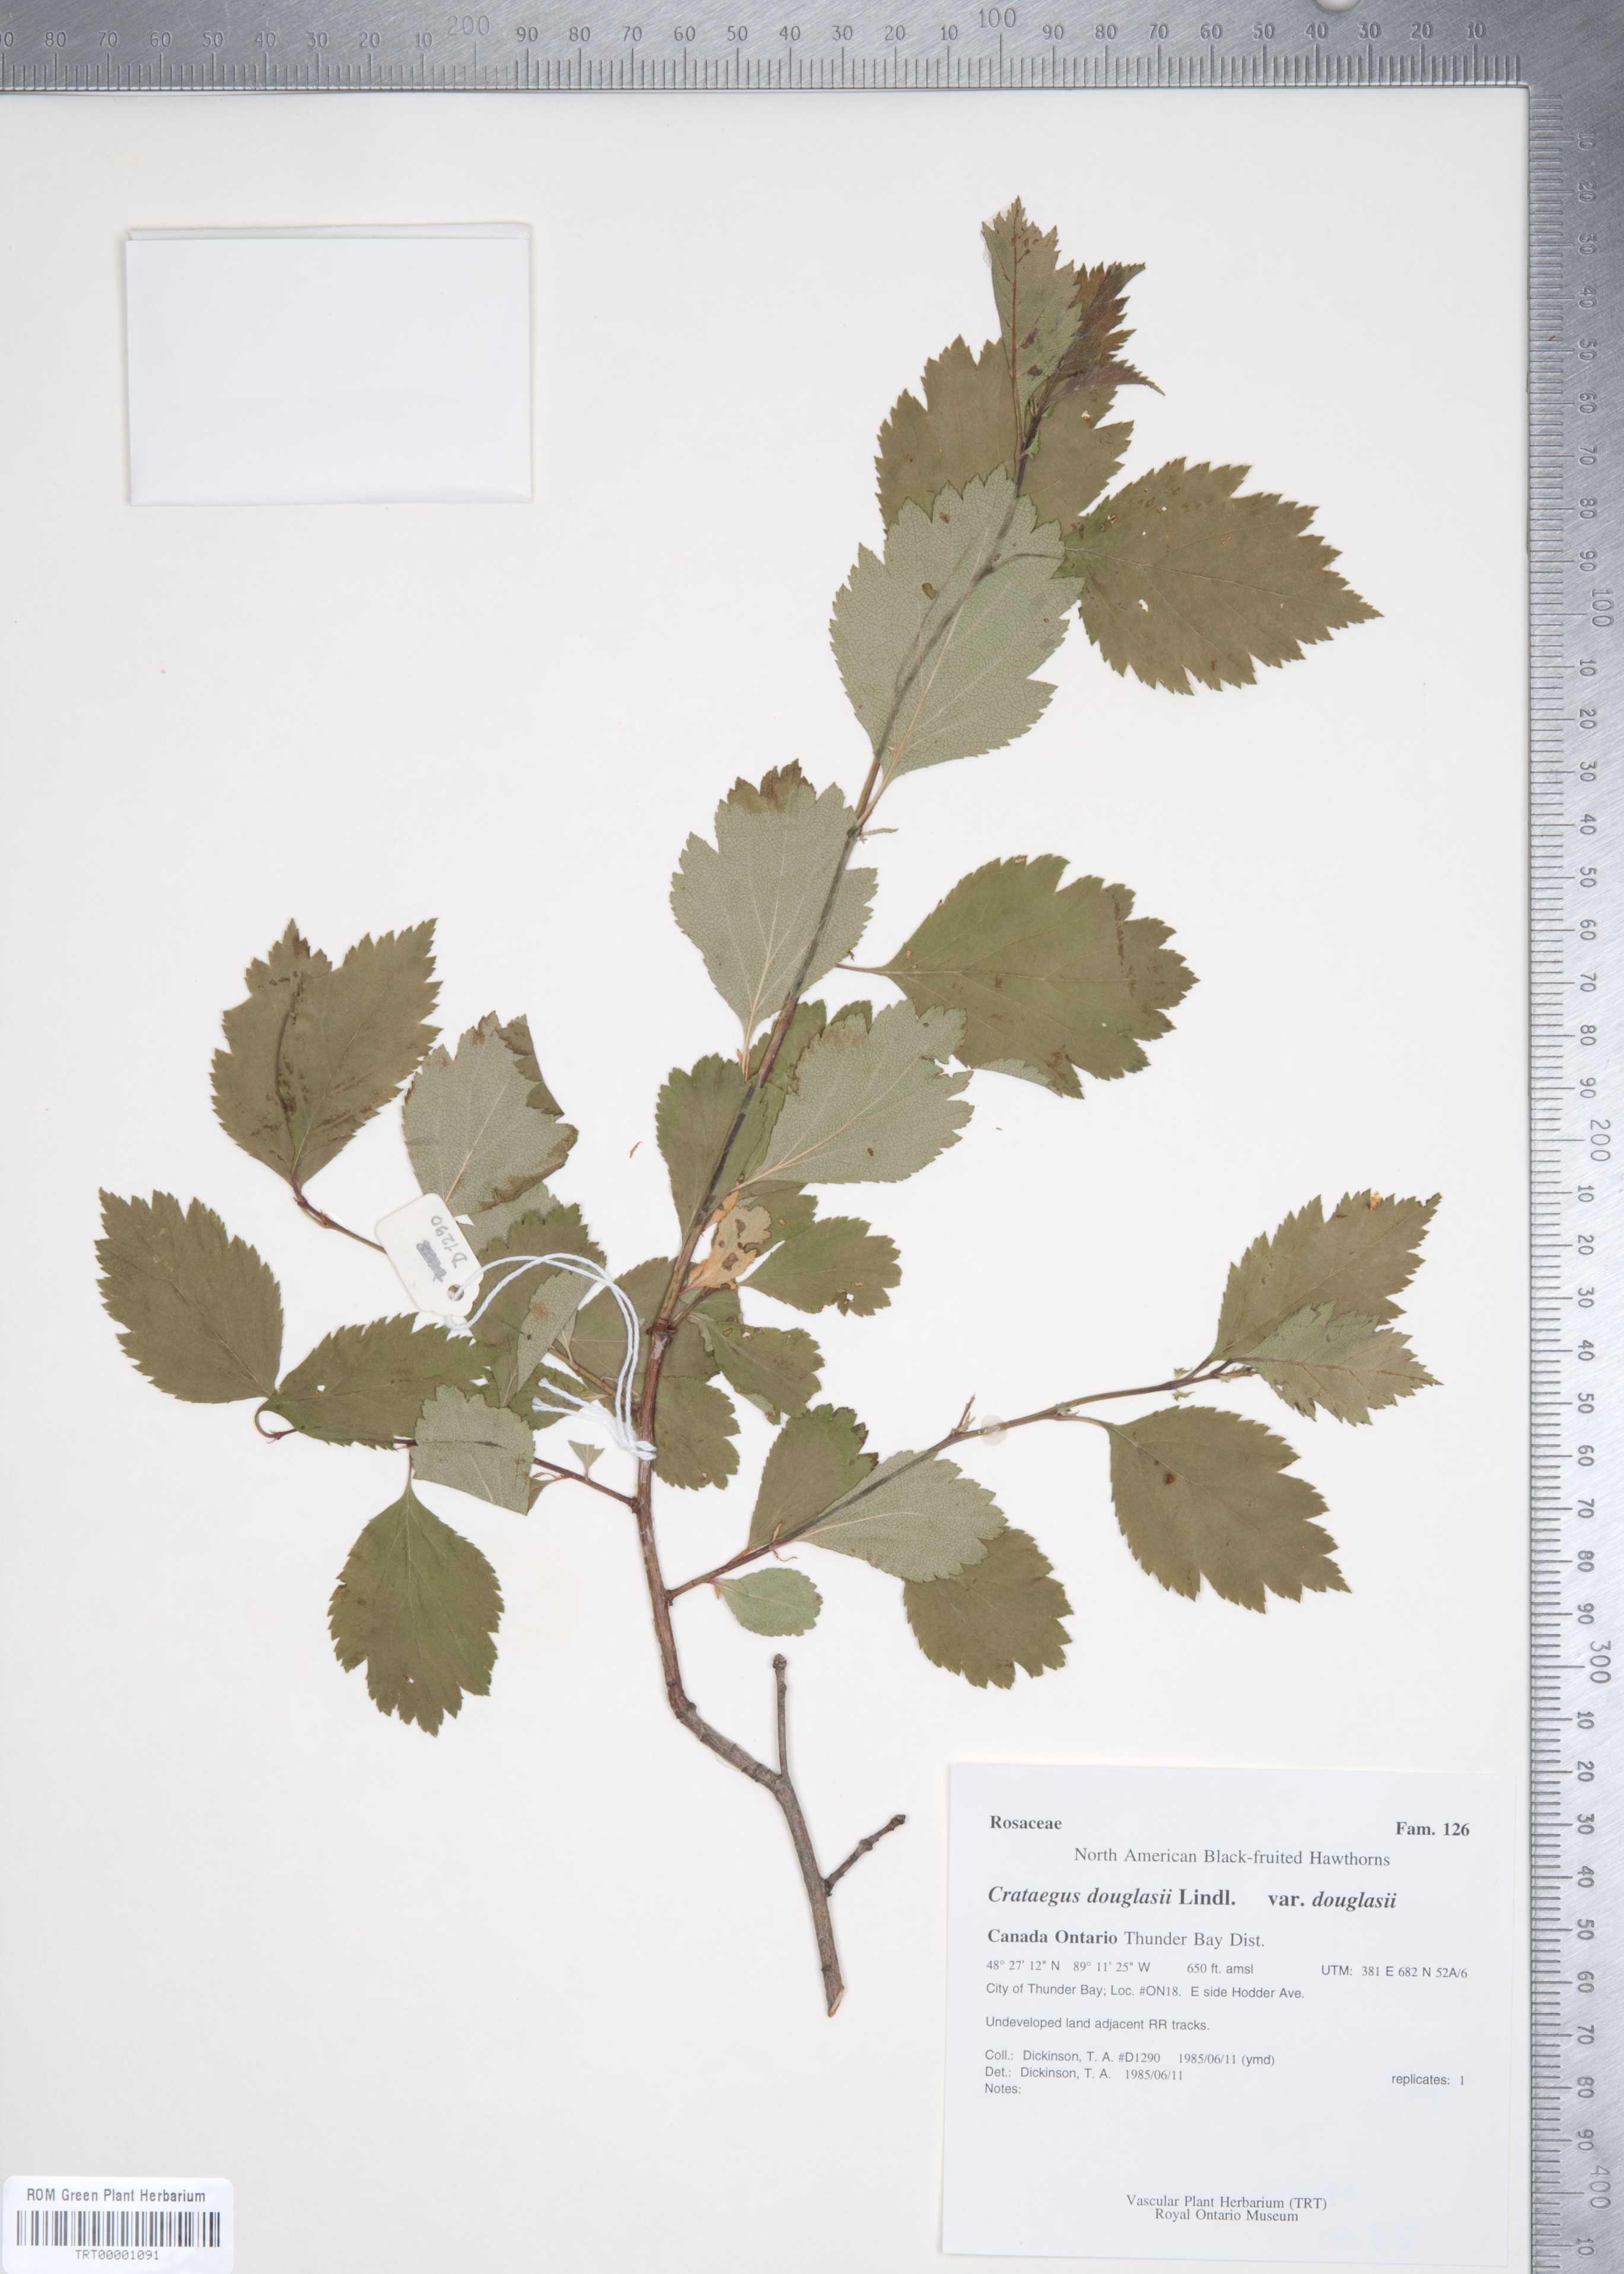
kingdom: Plantae
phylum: Tracheophyta
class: Magnoliopsida
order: Rosales
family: Rosaceae
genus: Crataegus
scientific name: Crataegus douglasii
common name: Black hawthorn
